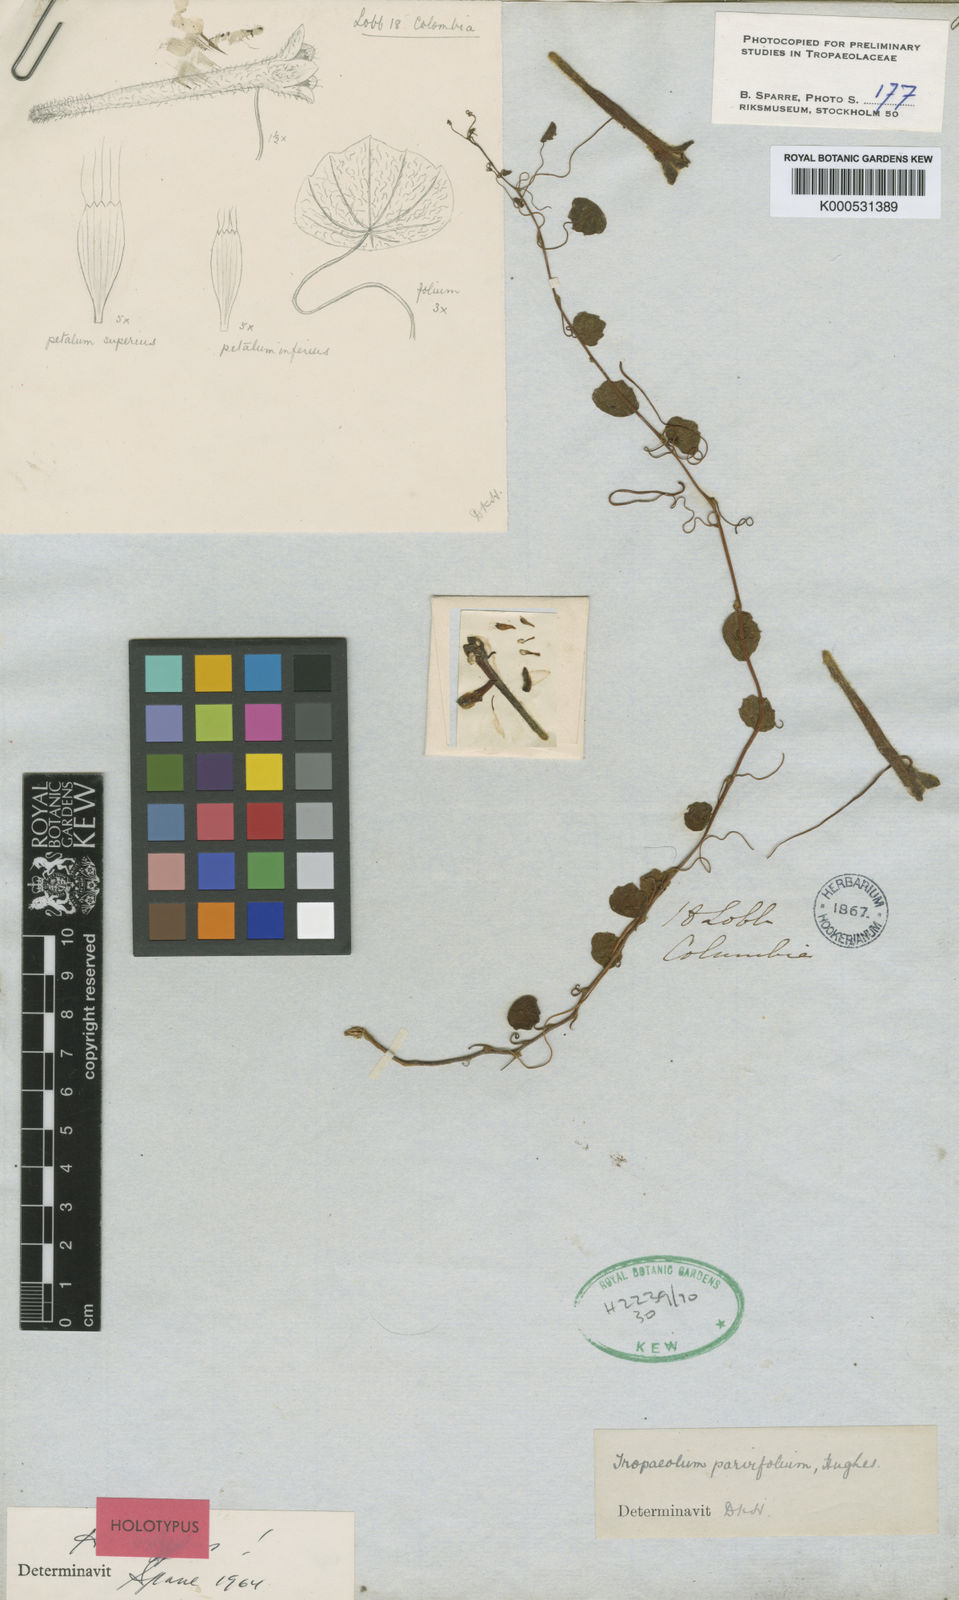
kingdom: Plantae
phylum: Tracheophyta
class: Magnoliopsida
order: Brassicales
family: Tropaeolaceae
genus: Tropaeolum
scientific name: Tropaeolum parvifolium
